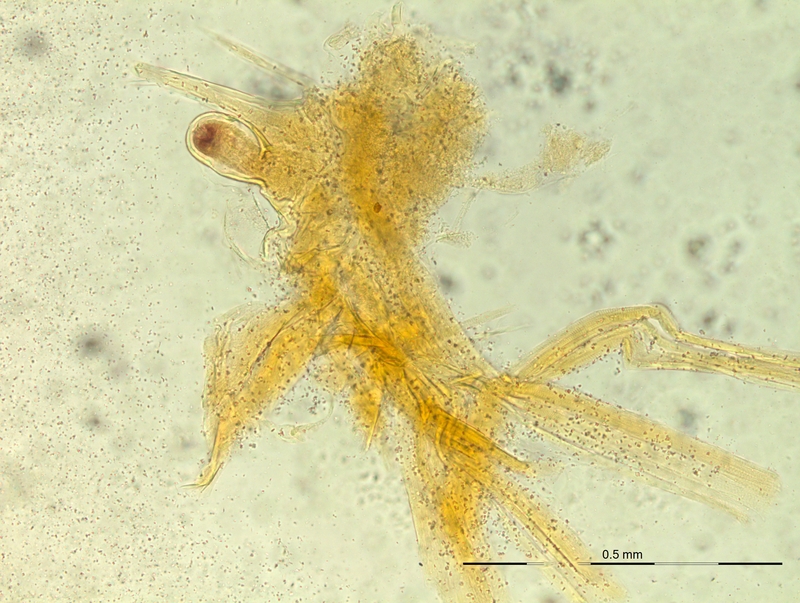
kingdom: Animalia
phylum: Arthropoda
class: Diplopoda
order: Chordeumatida
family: Craspedosomatidae
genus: Rhymogona
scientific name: Rhymogona montivaga
